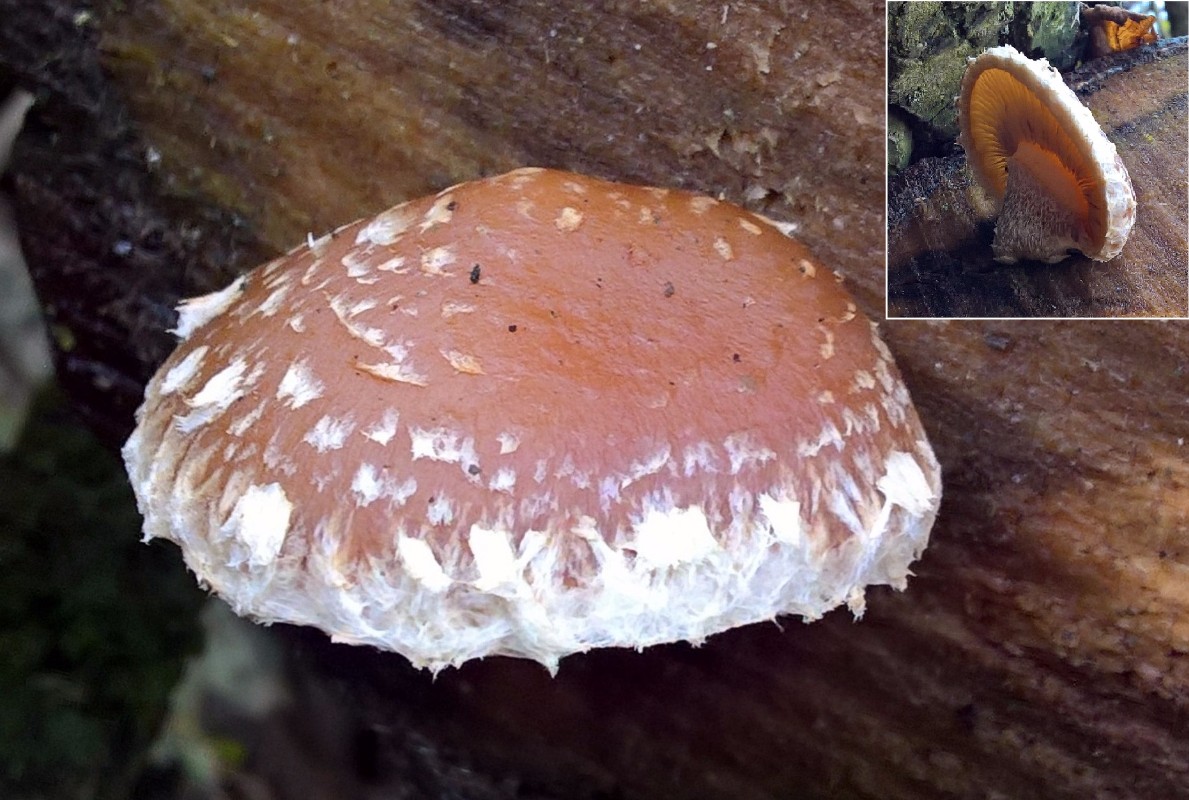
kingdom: Fungi
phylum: Basidiomycota
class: Agaricomycetes
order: Agaricales
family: Strophariaceae
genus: Pholiota
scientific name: Pholiota populnea
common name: poppel-kæmpeskælhat
